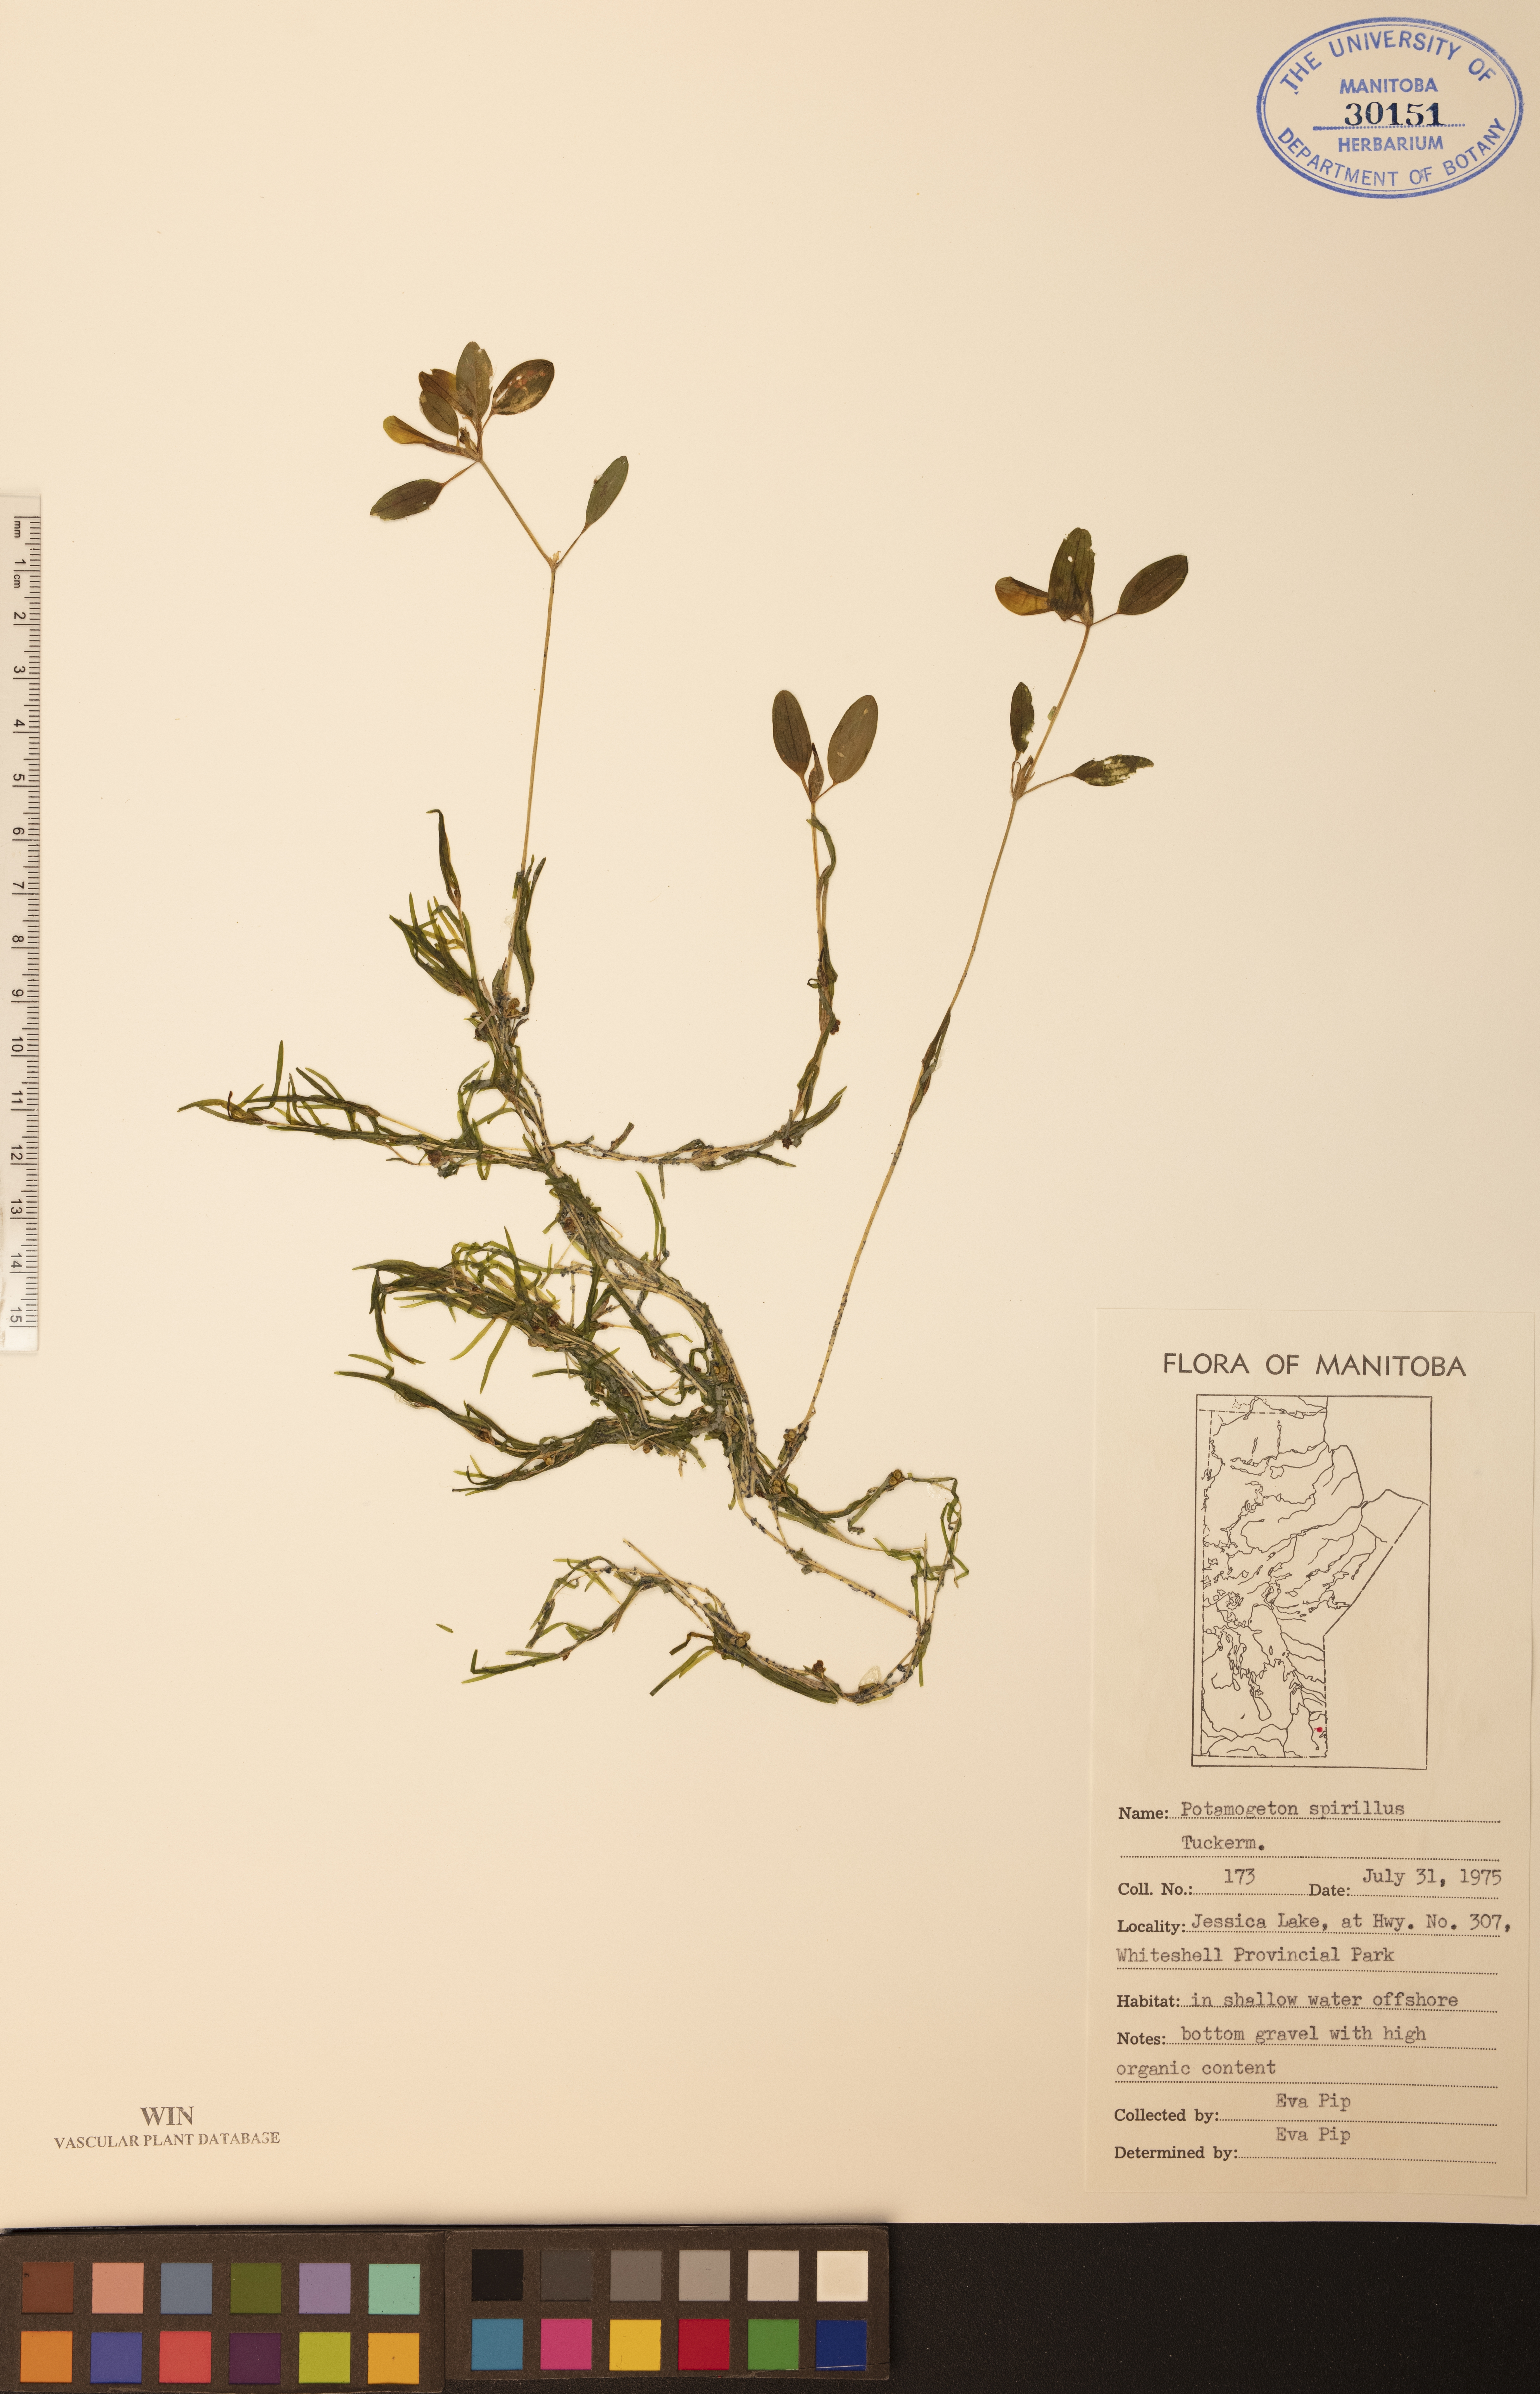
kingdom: Plantae
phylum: Tracheophyta
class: Liliopsida
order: Alismatales
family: Potamogetonaceae
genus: Potamogeton
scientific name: Potamogeton spirillus
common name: Northern snail-seed pondweed
